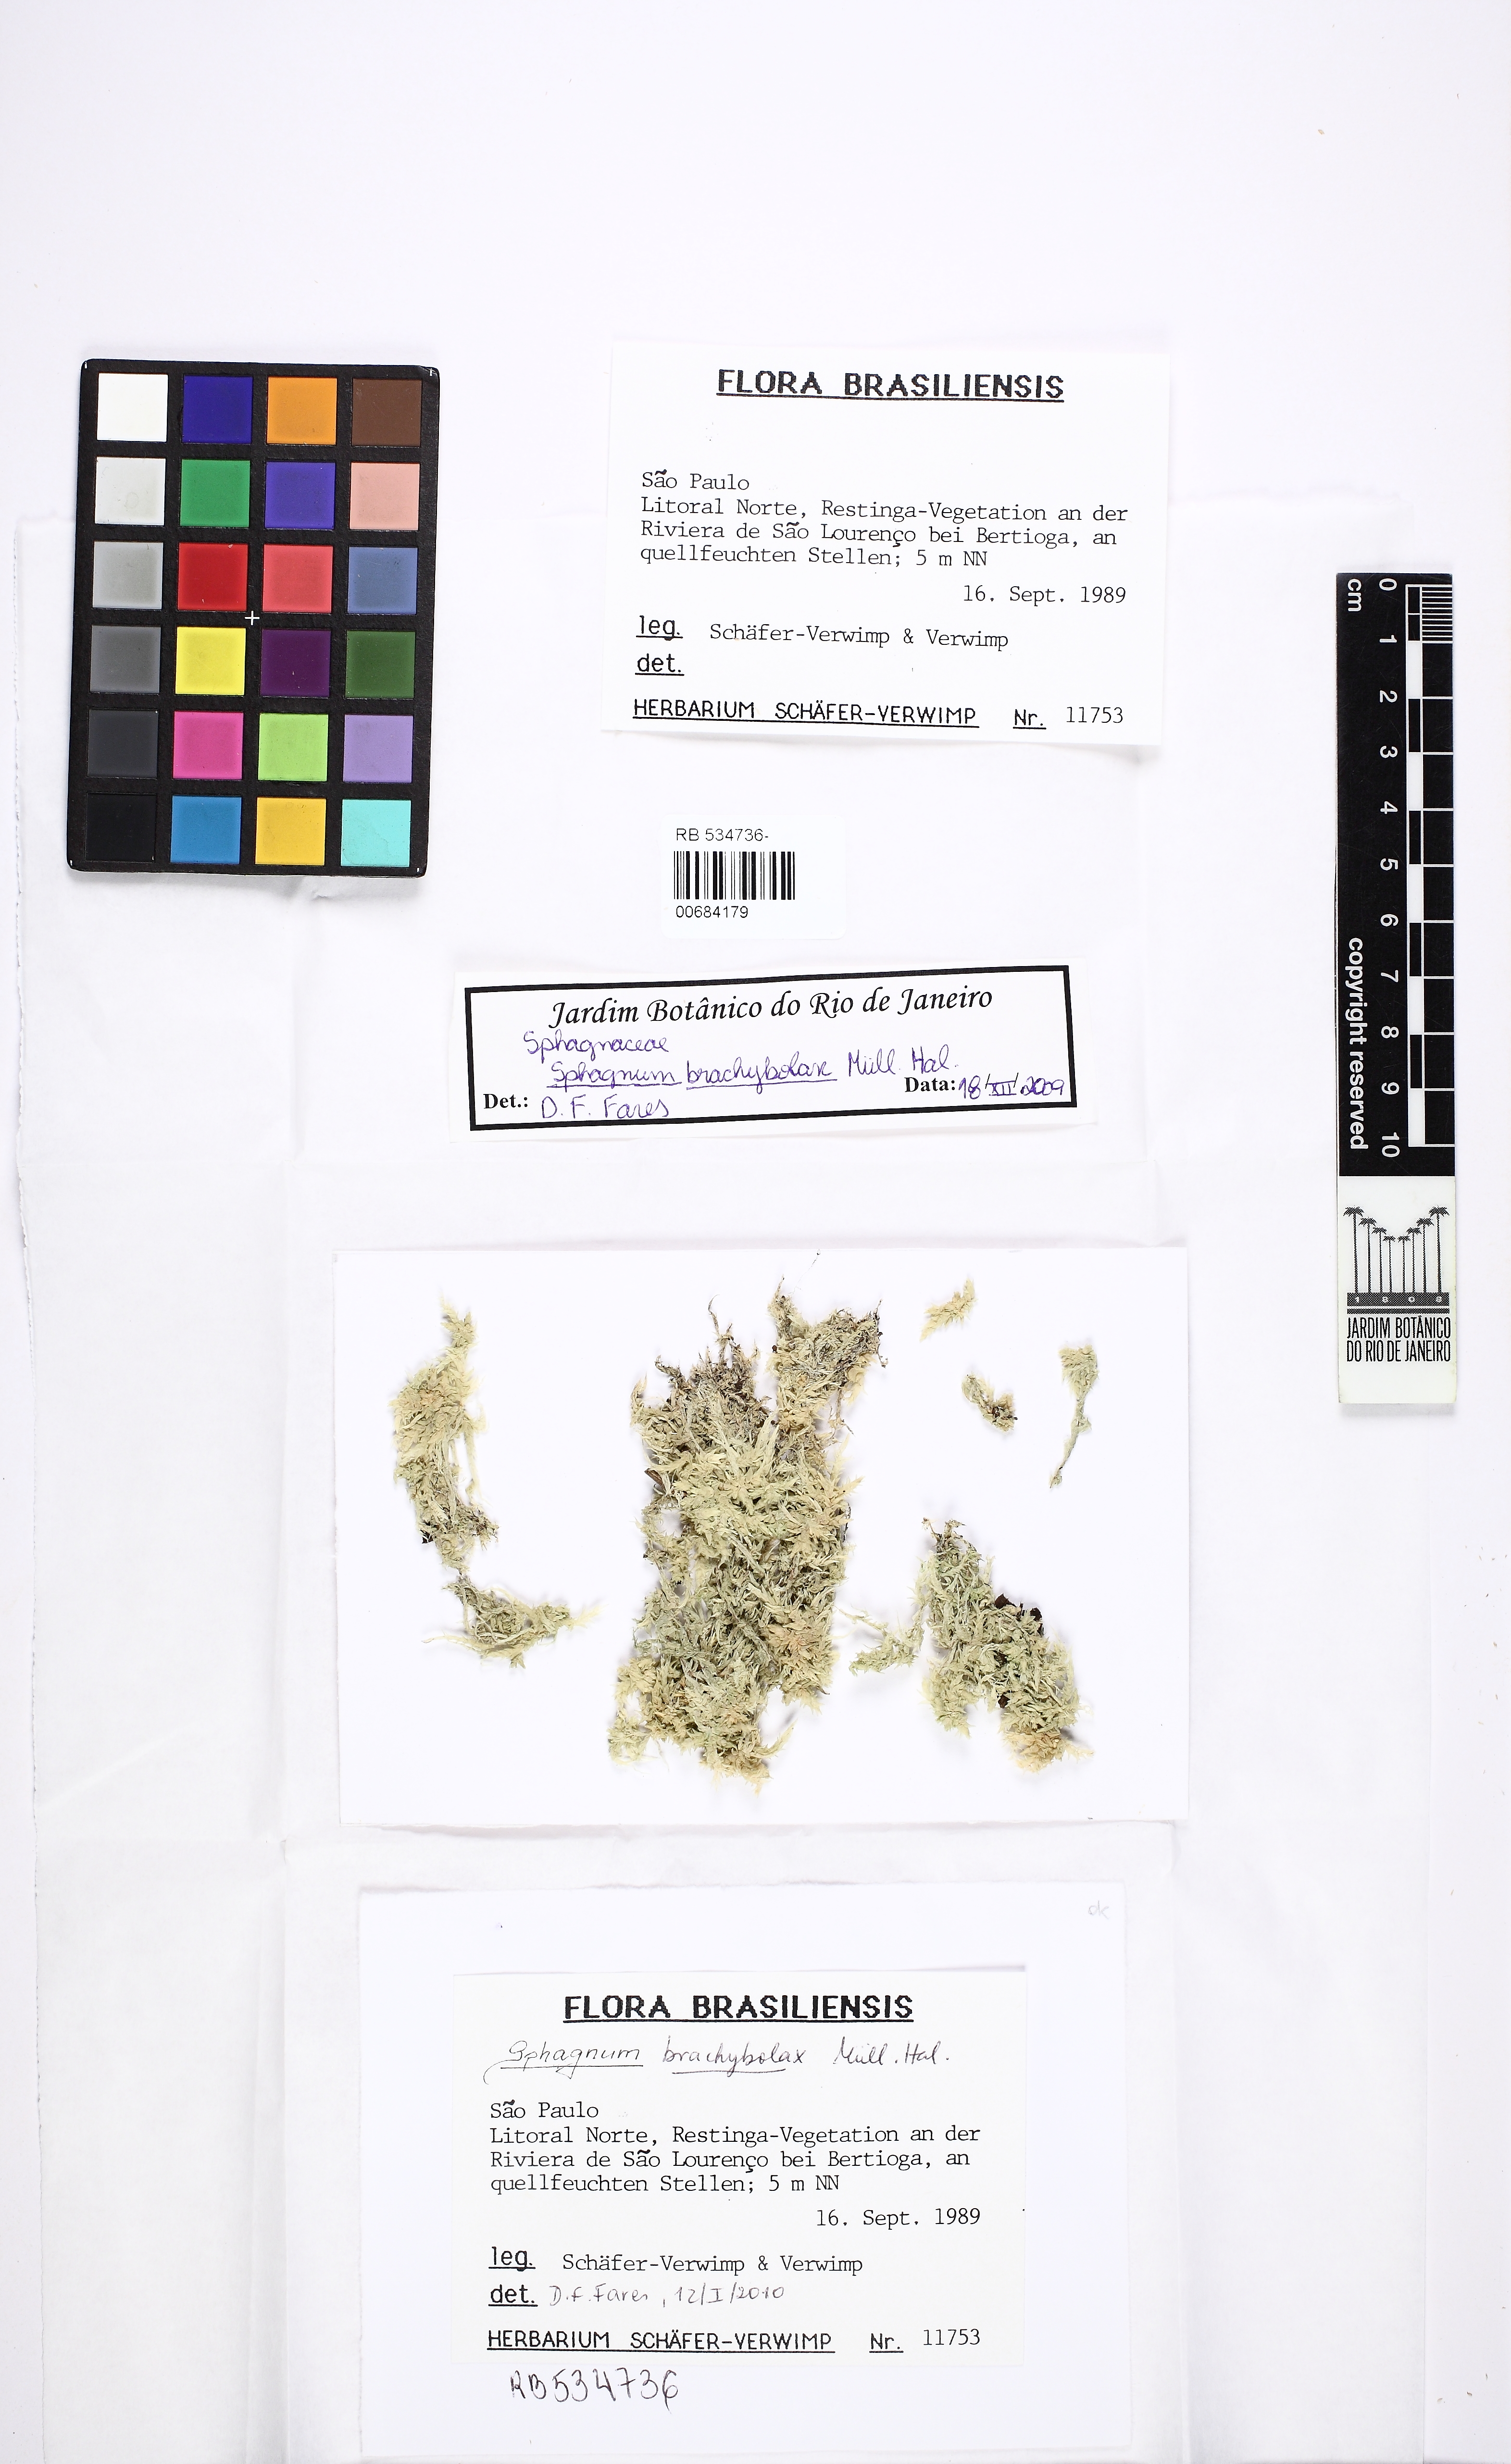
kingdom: Plantae
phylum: Bryophyta
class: Sphagnopsida
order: Sphagnales
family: Sphagnaceae
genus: Sphagnum
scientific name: Sphagnum brachybolax
